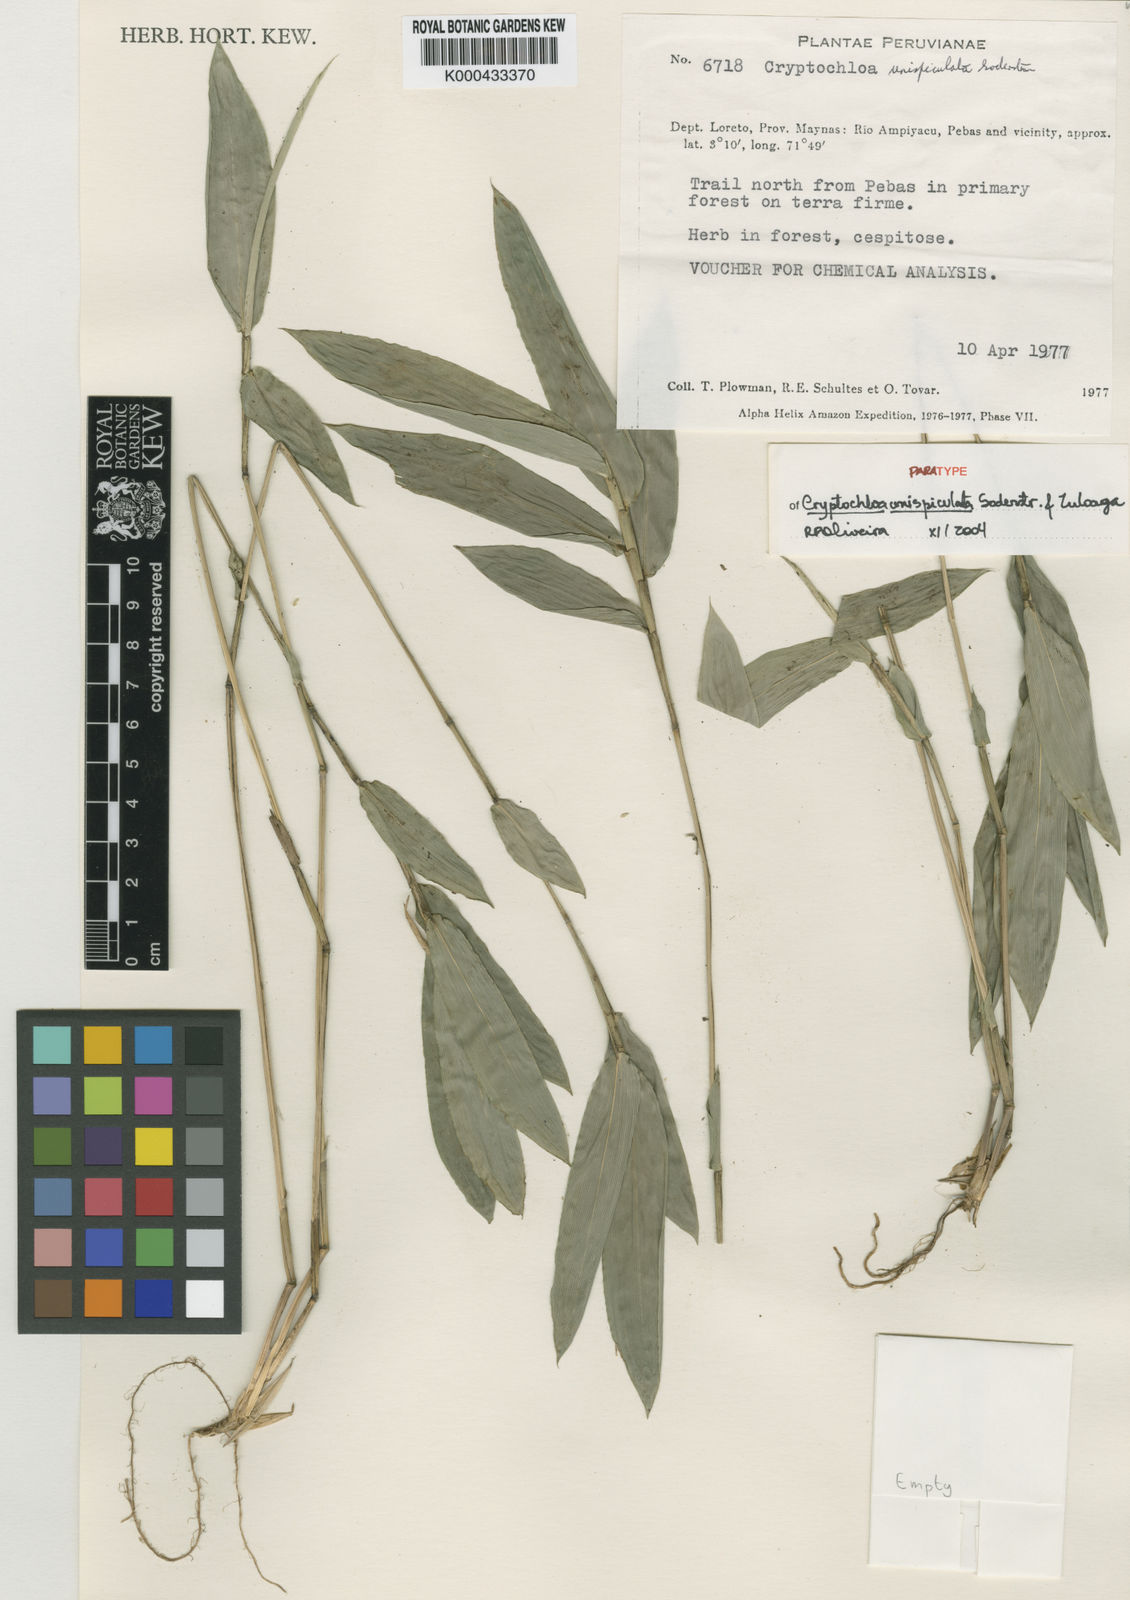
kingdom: Plantae
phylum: Tracheophyta
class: Liliopsida
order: Poales
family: Poaceae
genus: Cryptochloa
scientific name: Cryptochloa unispiculata
